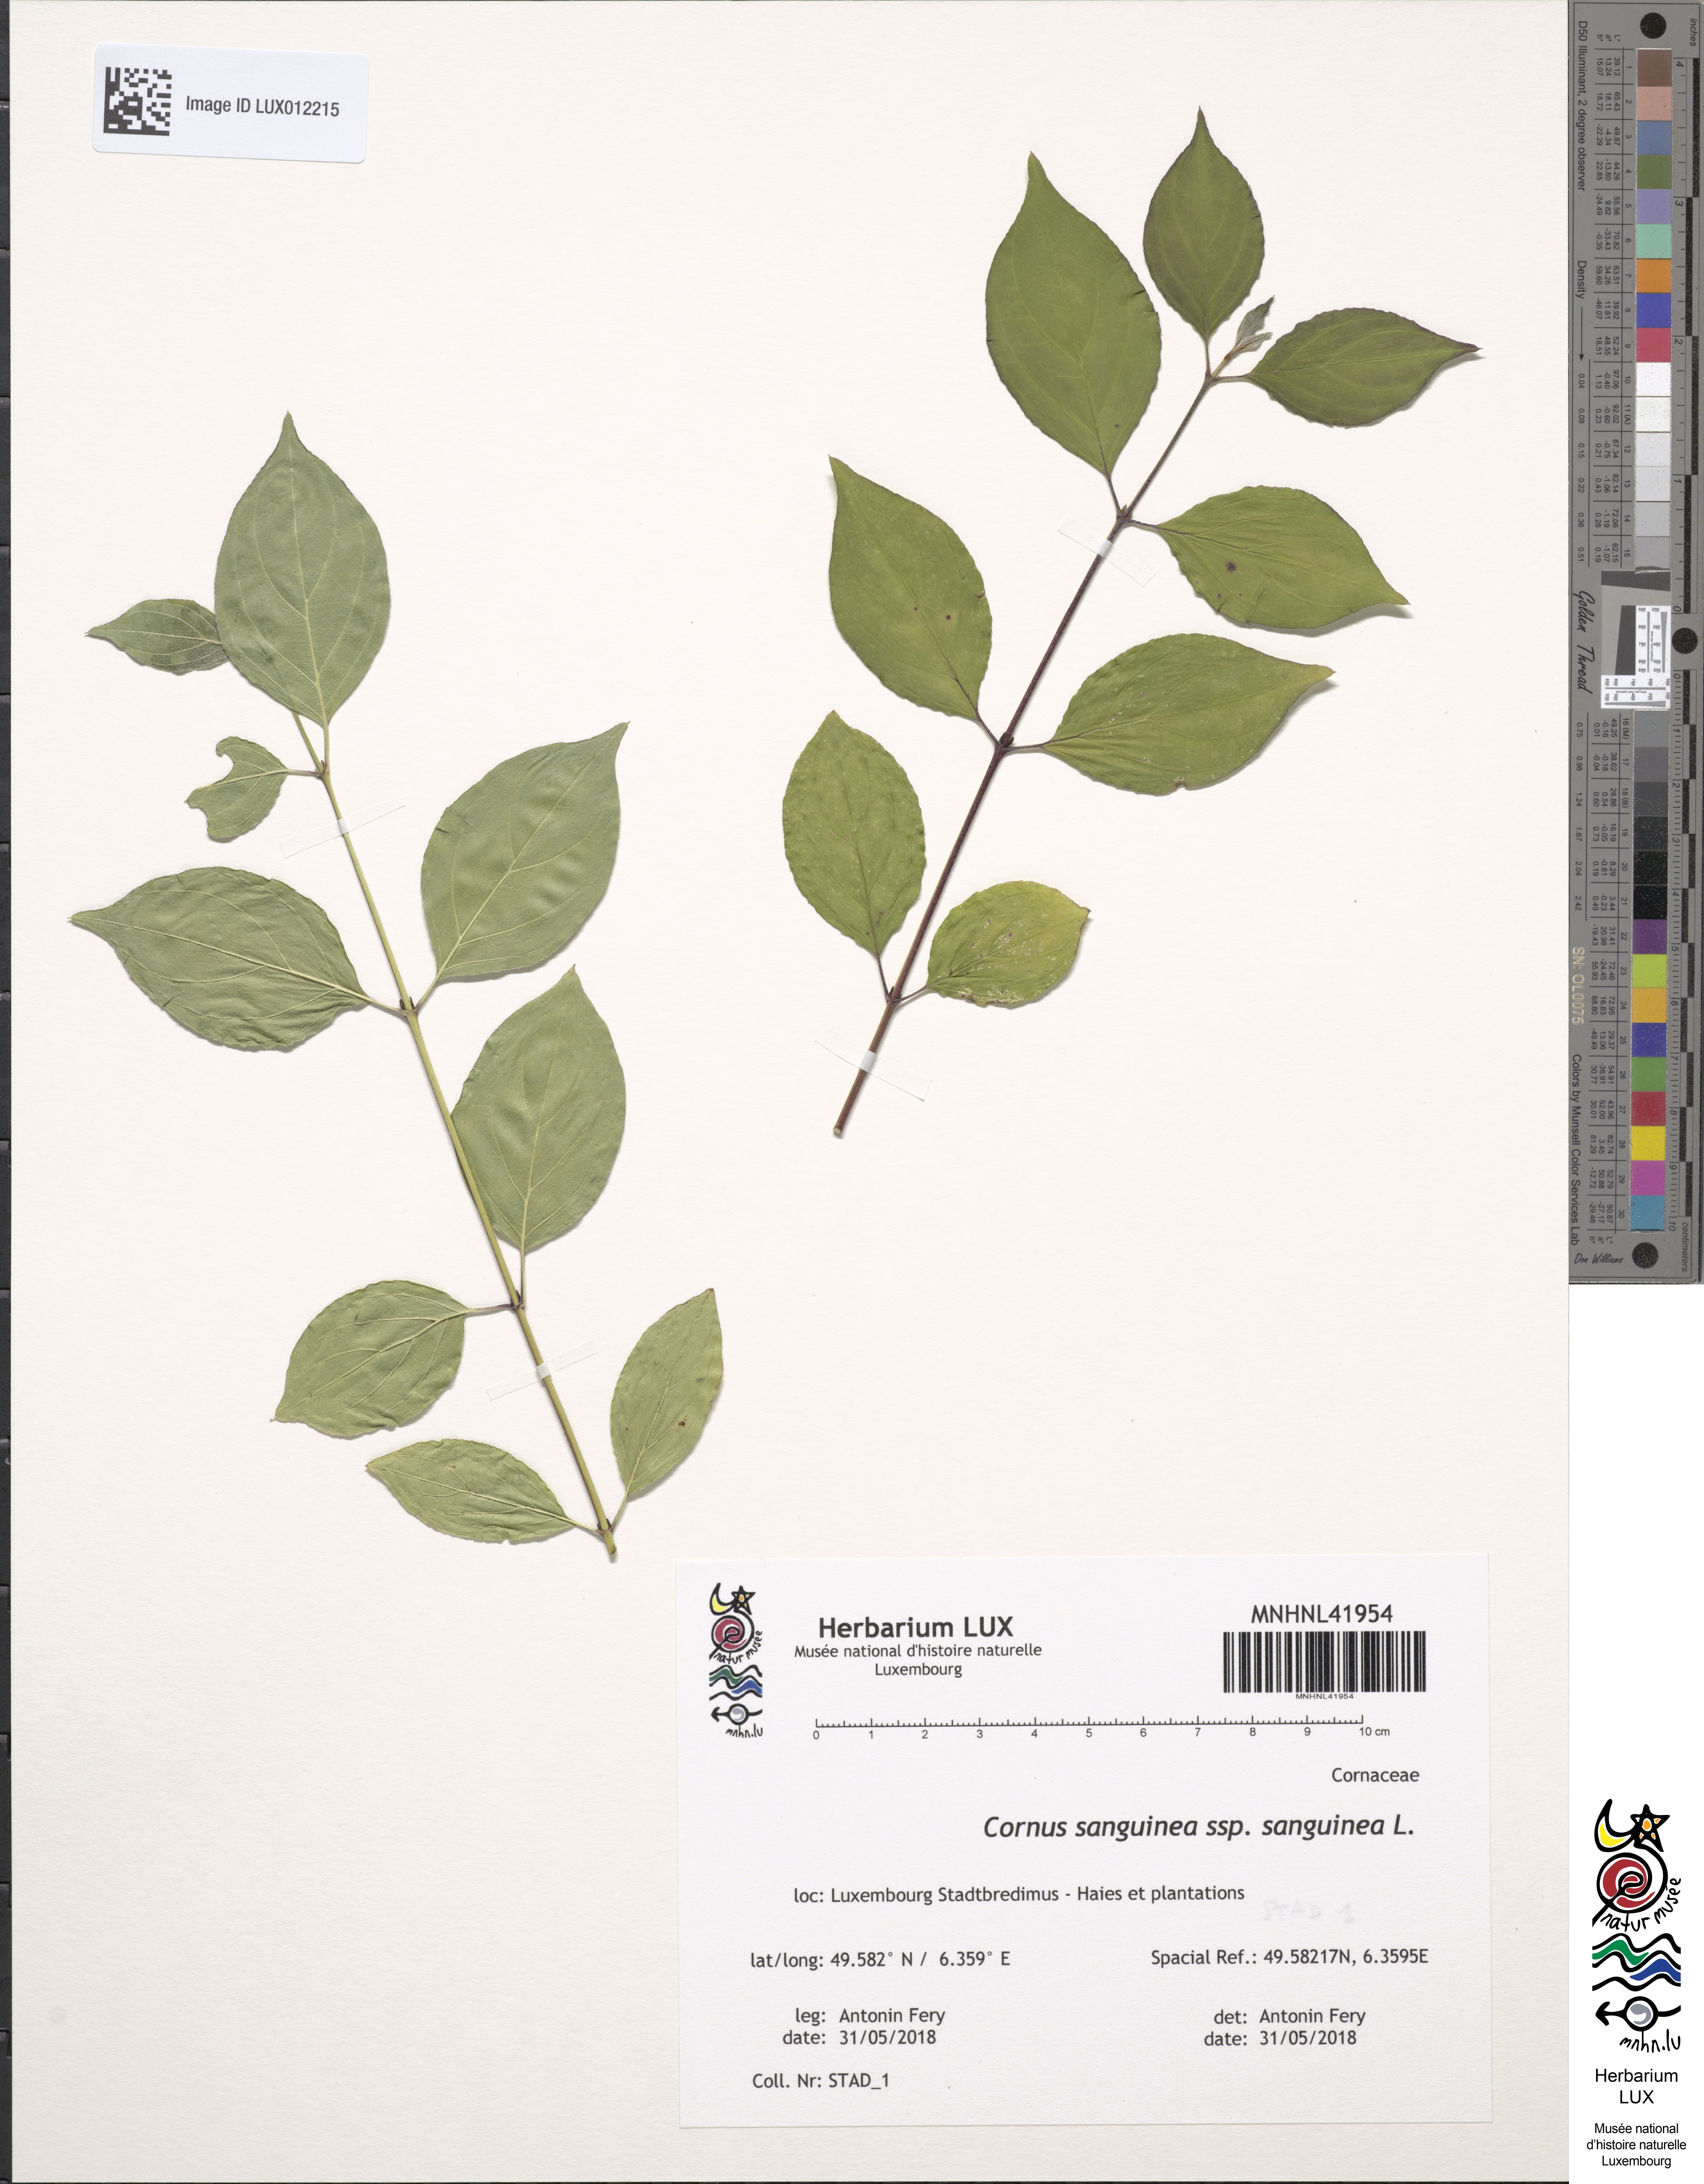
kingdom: Plantae
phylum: Tracheophyta
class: Magnoliopsida
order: Cornales
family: Cornaceae
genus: Cornus
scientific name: Cornus sanguinea
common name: Dogwood
